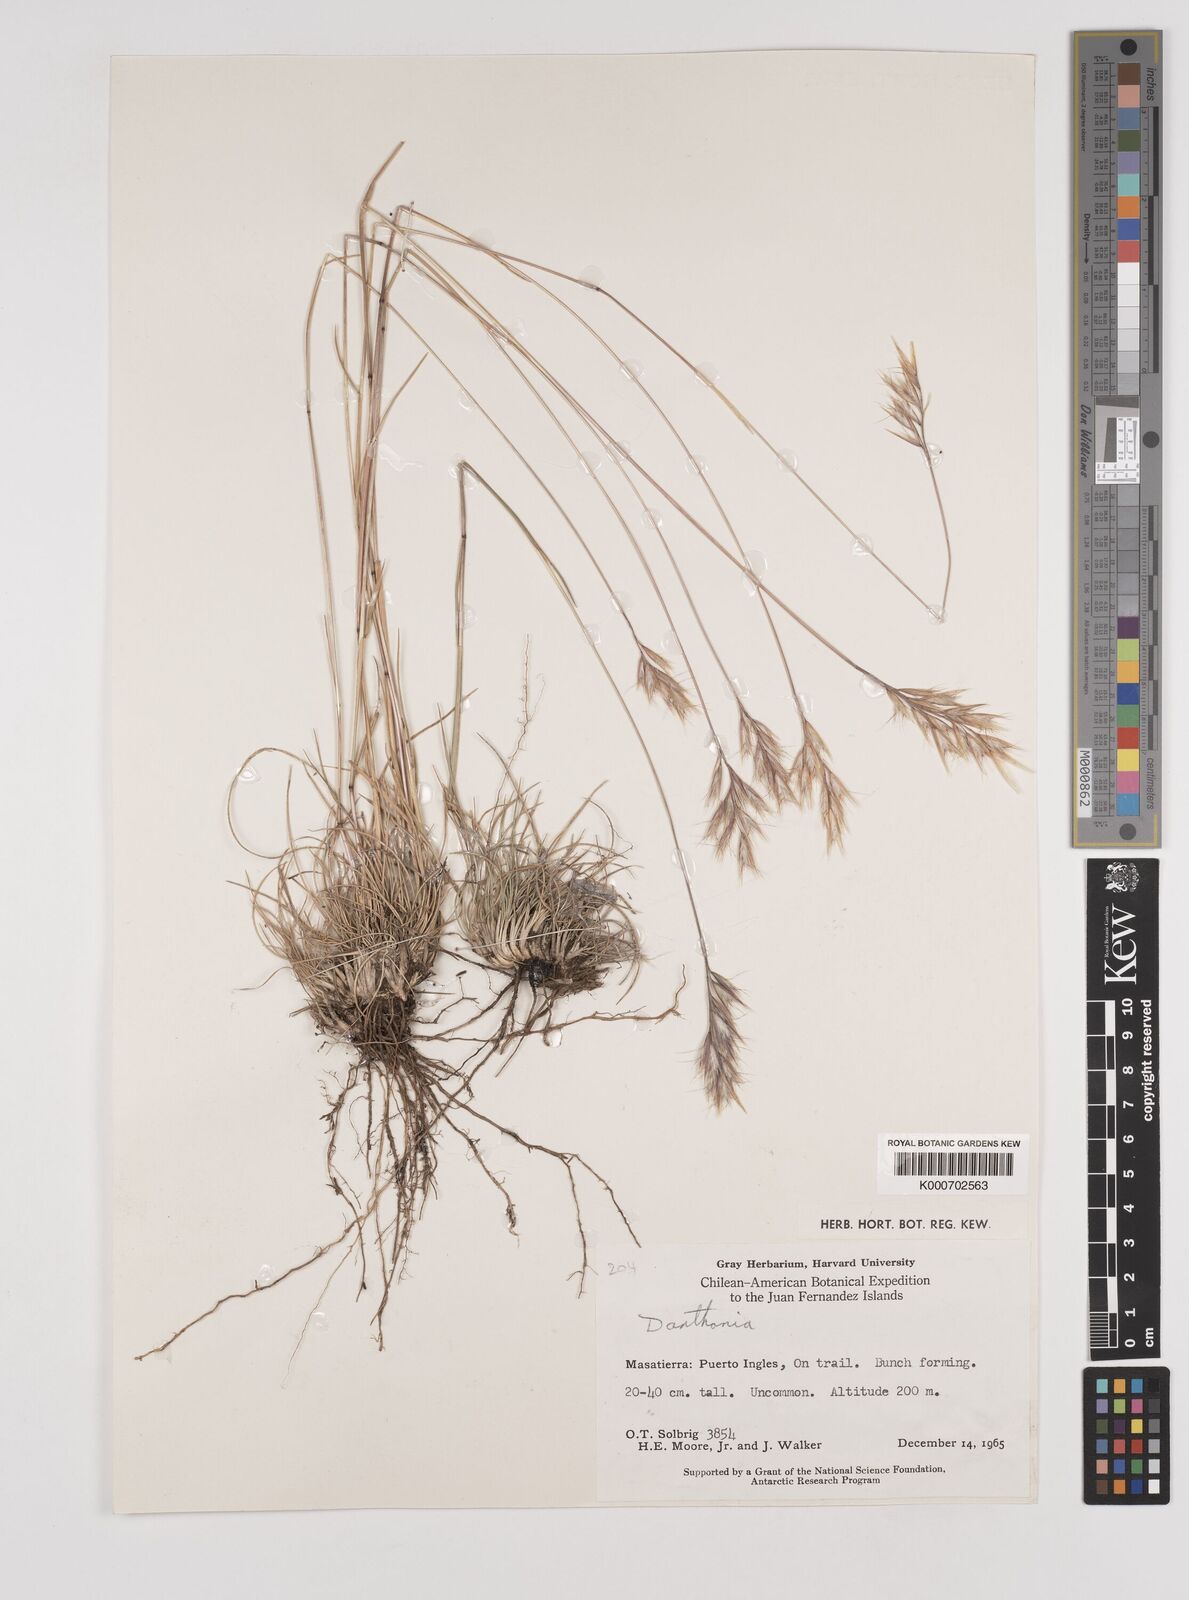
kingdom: Plantae
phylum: Tracheophyta
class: Liliopsida
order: Poales
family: Poaceae
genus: Danthonia
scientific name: Danthonia malacantha
